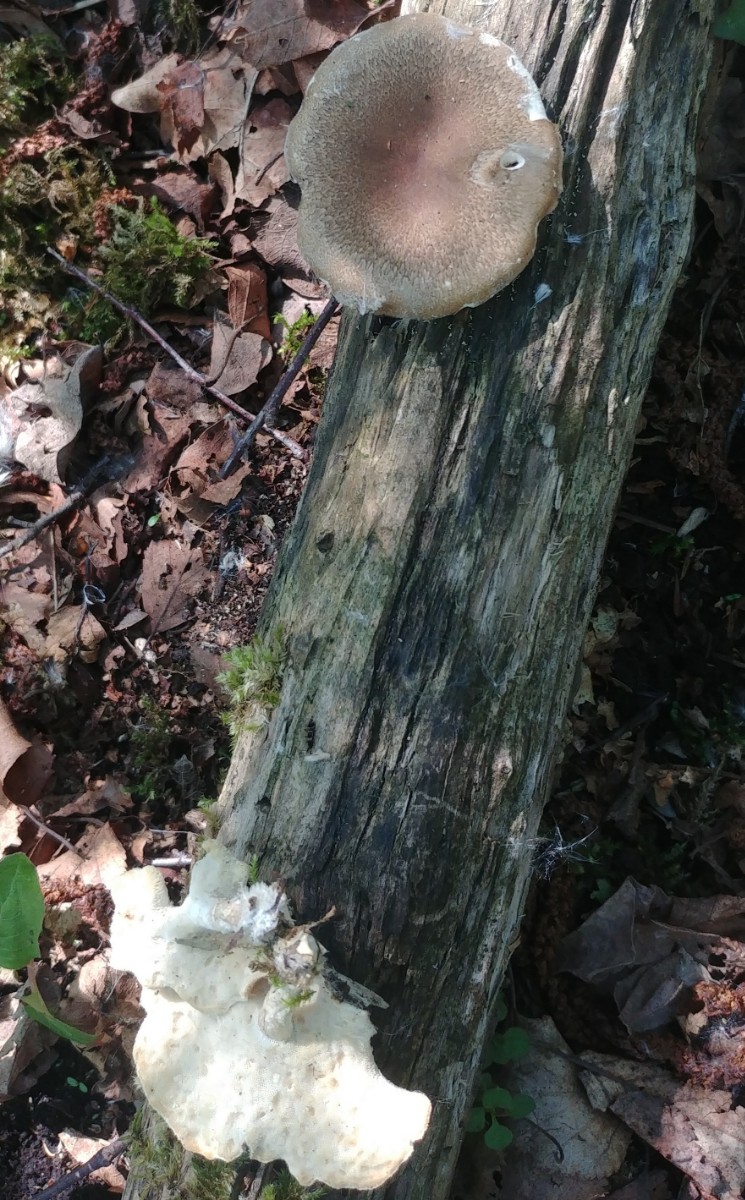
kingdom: Fungi
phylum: Basidiomycota
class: Agaricomycetes
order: Polyporales
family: Polyporaceae
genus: Lentinus
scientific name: Lentinus substrictus
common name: forårs-stilkporesvamp
